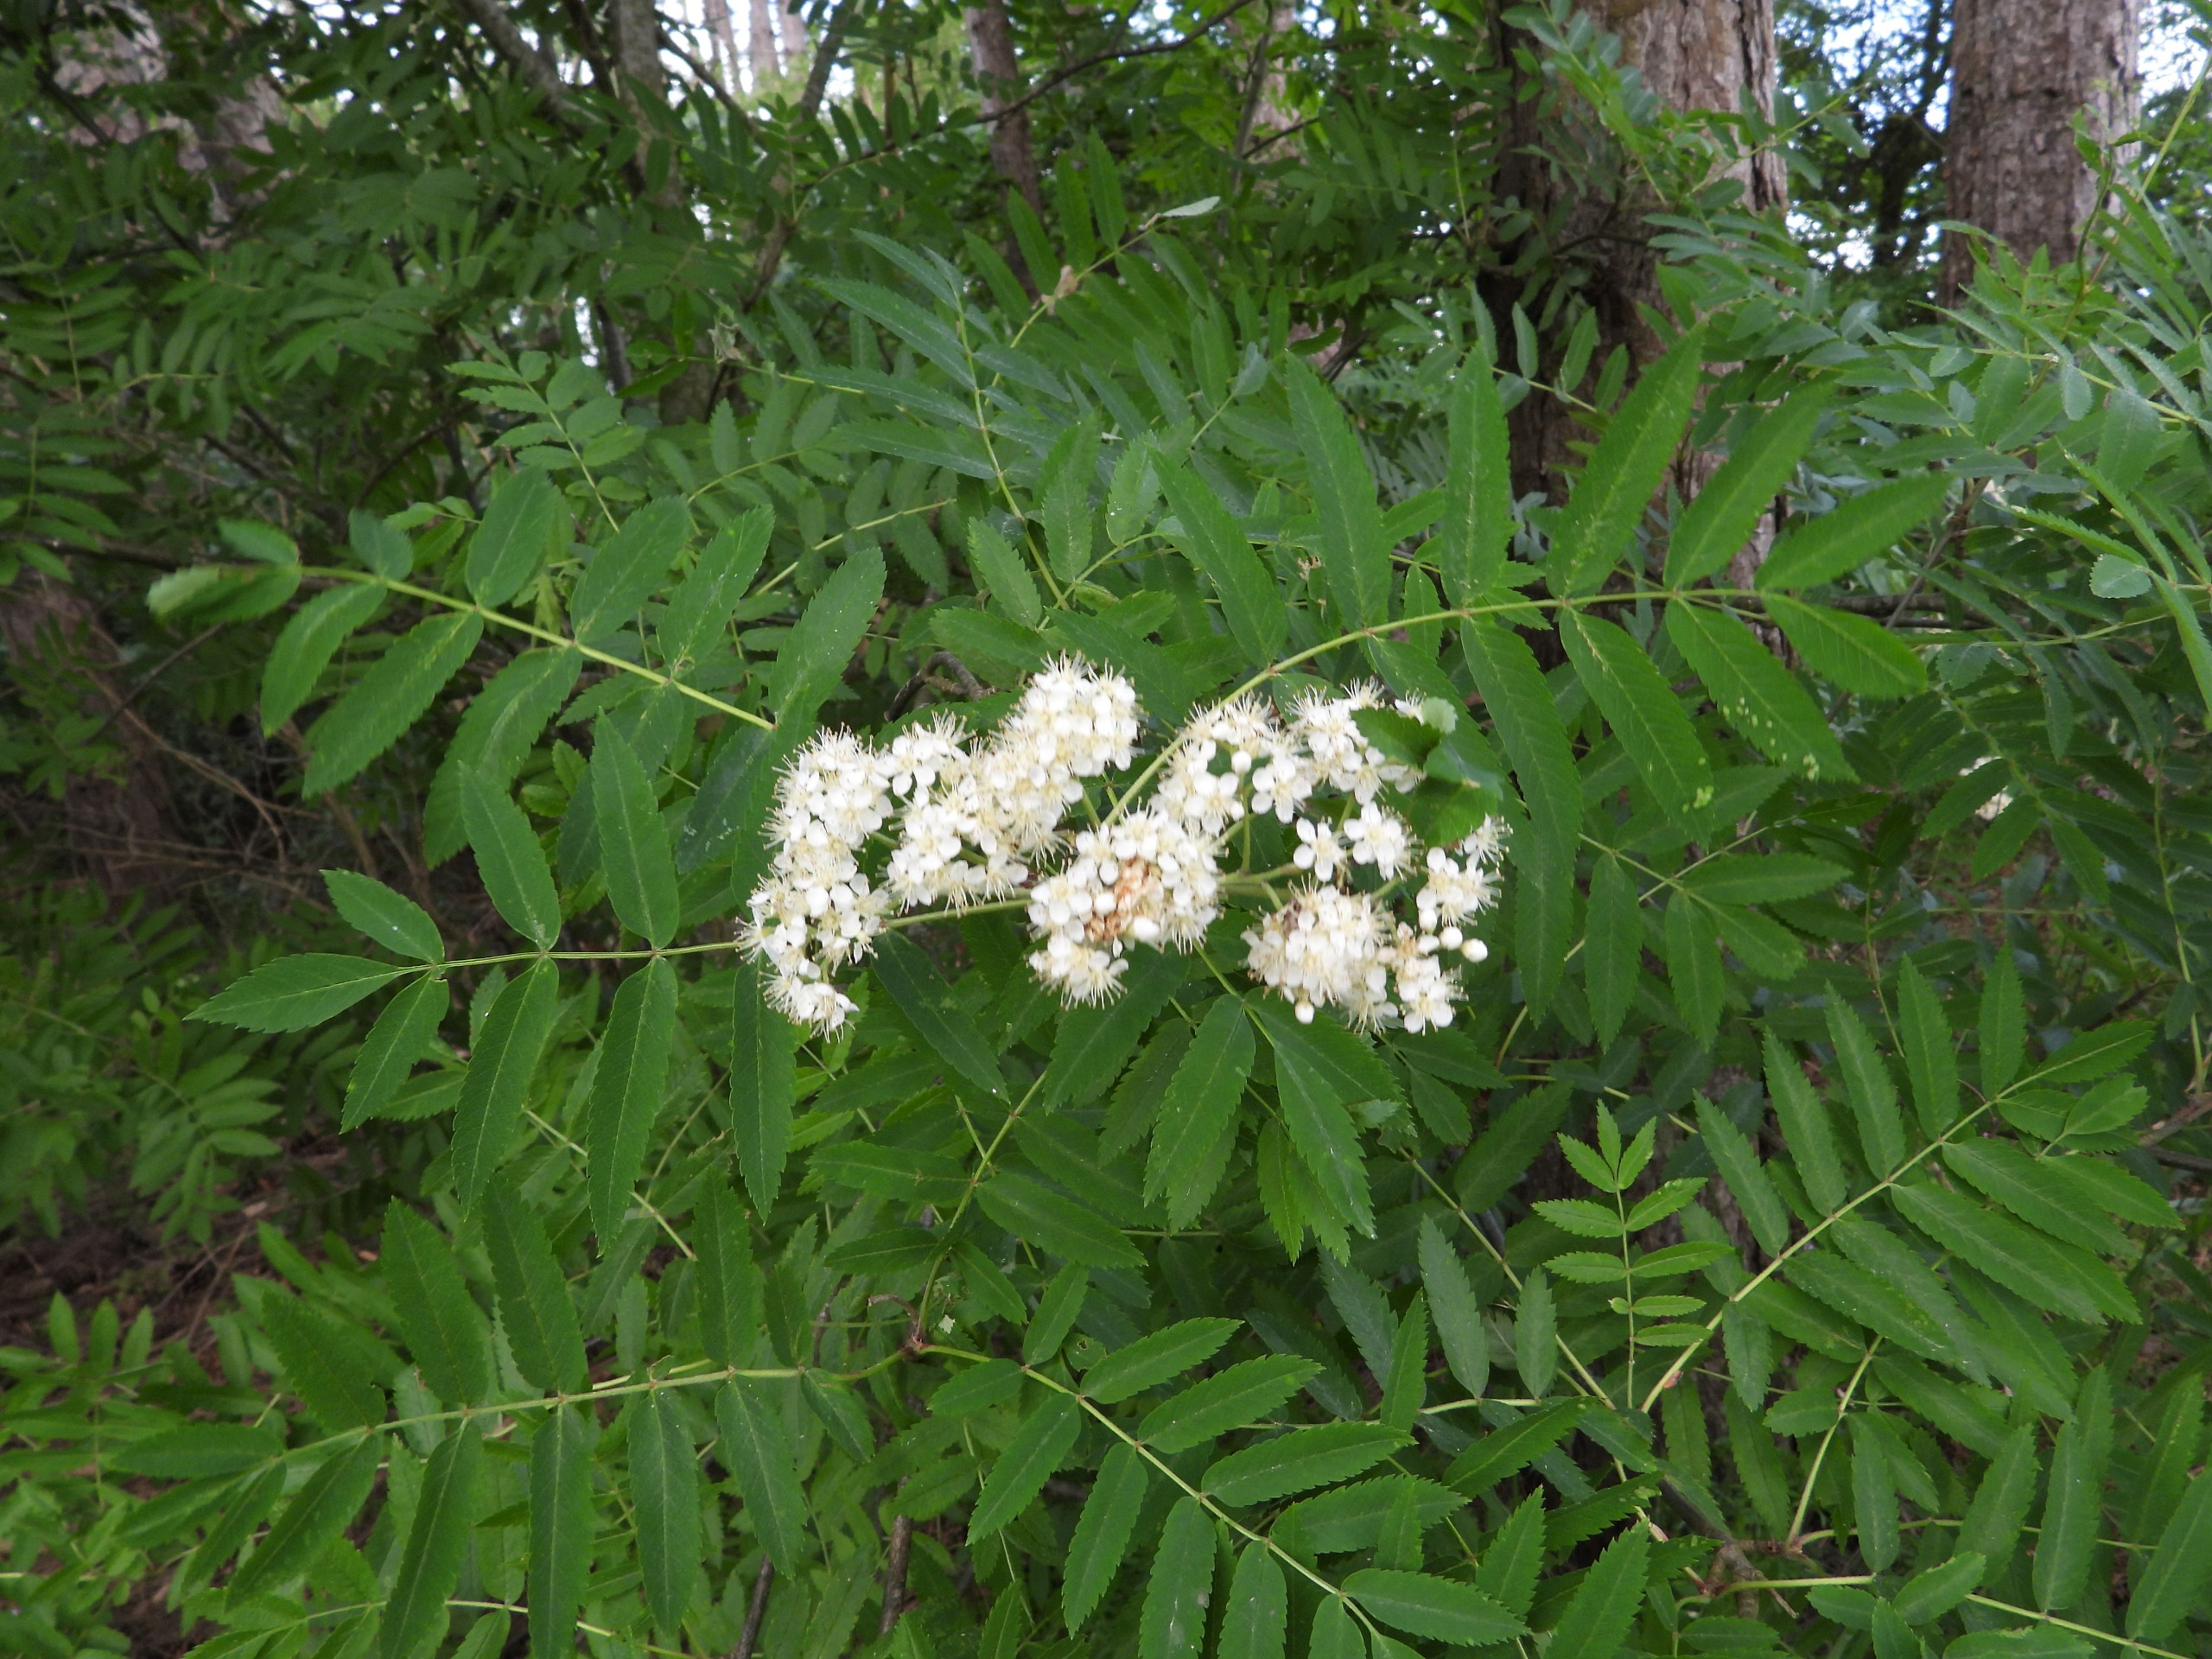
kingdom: Plantae
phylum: Tracheophyta
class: Magnoliopsida
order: Rosales
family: Rosaceae
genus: Sorbus
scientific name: Sorbus aucuparia
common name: Almindelig røn
